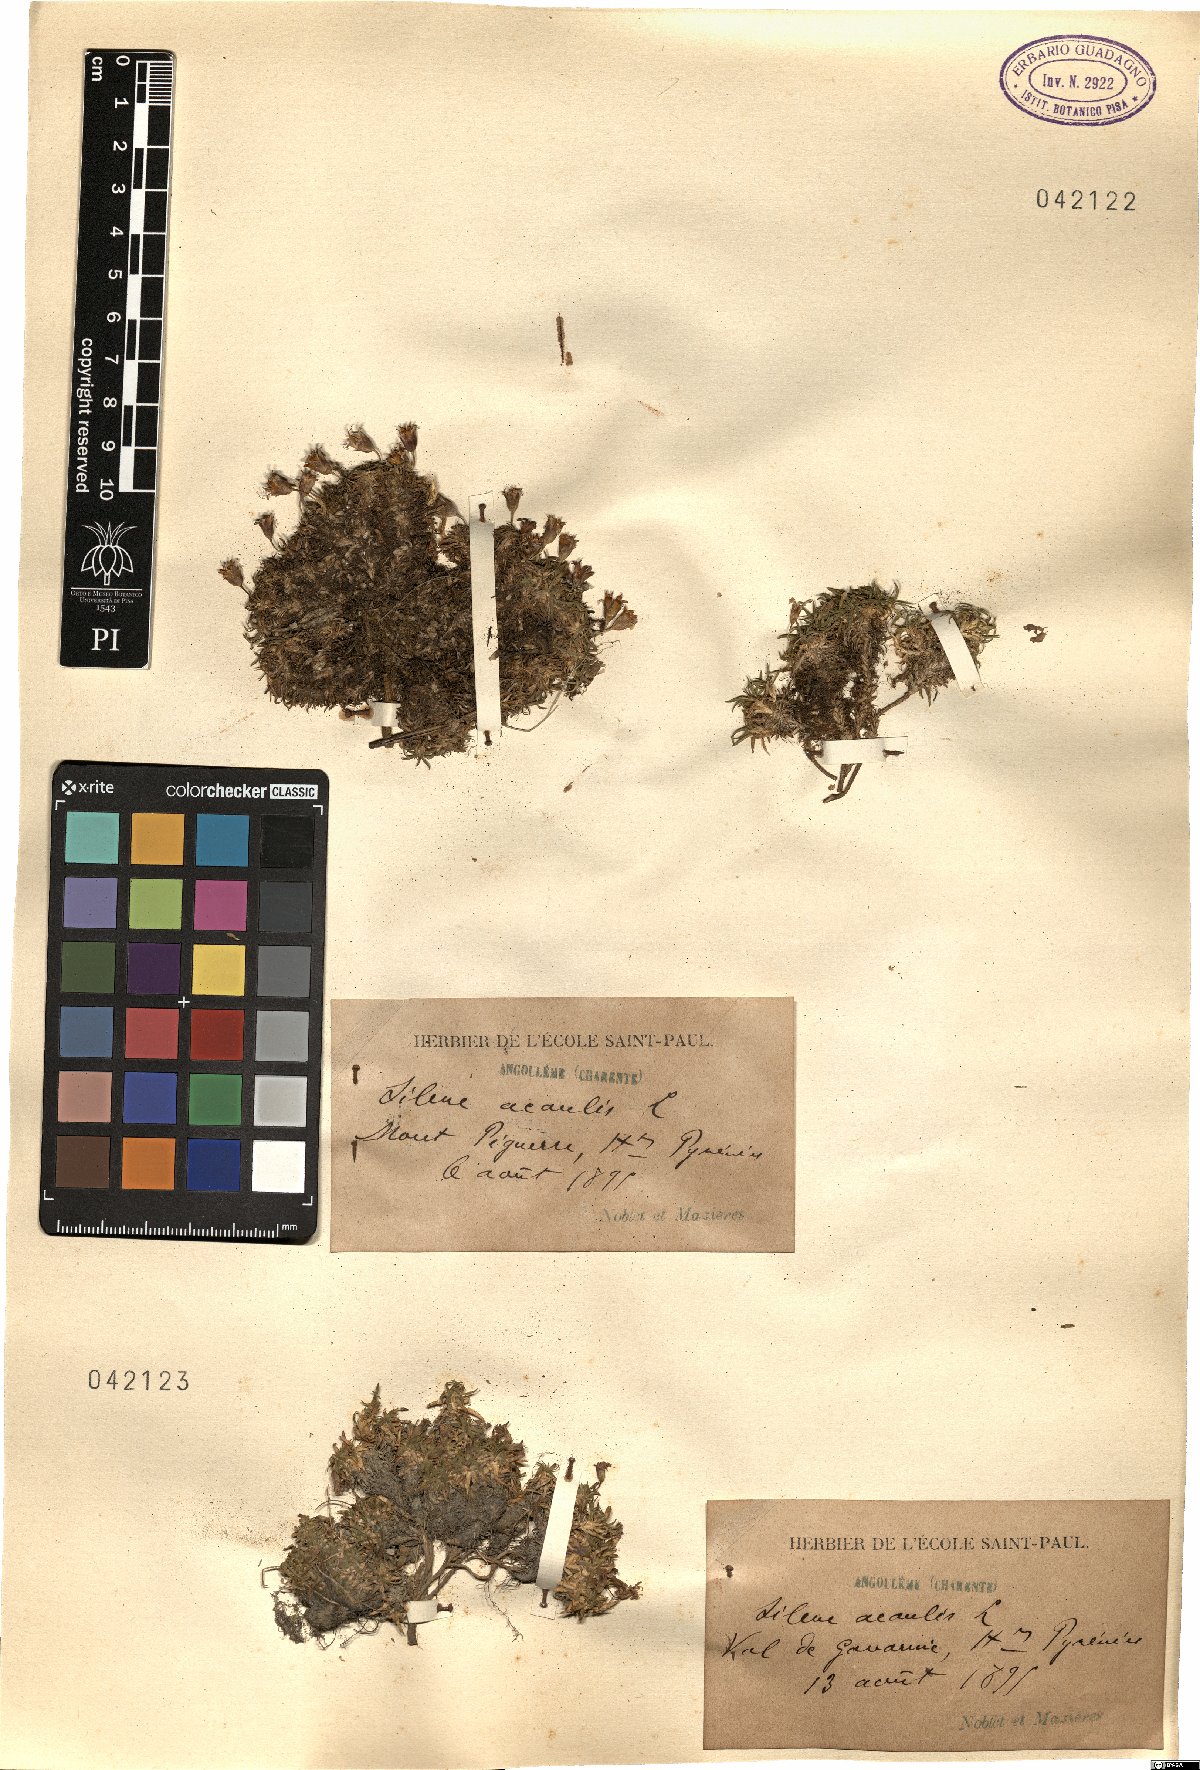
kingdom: Plantae
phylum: Tracheophyta
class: Magnoliopsida
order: Caryophyllales
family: Caryophyllaceae
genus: Silene
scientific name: Silene acaulis
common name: Moss campion
